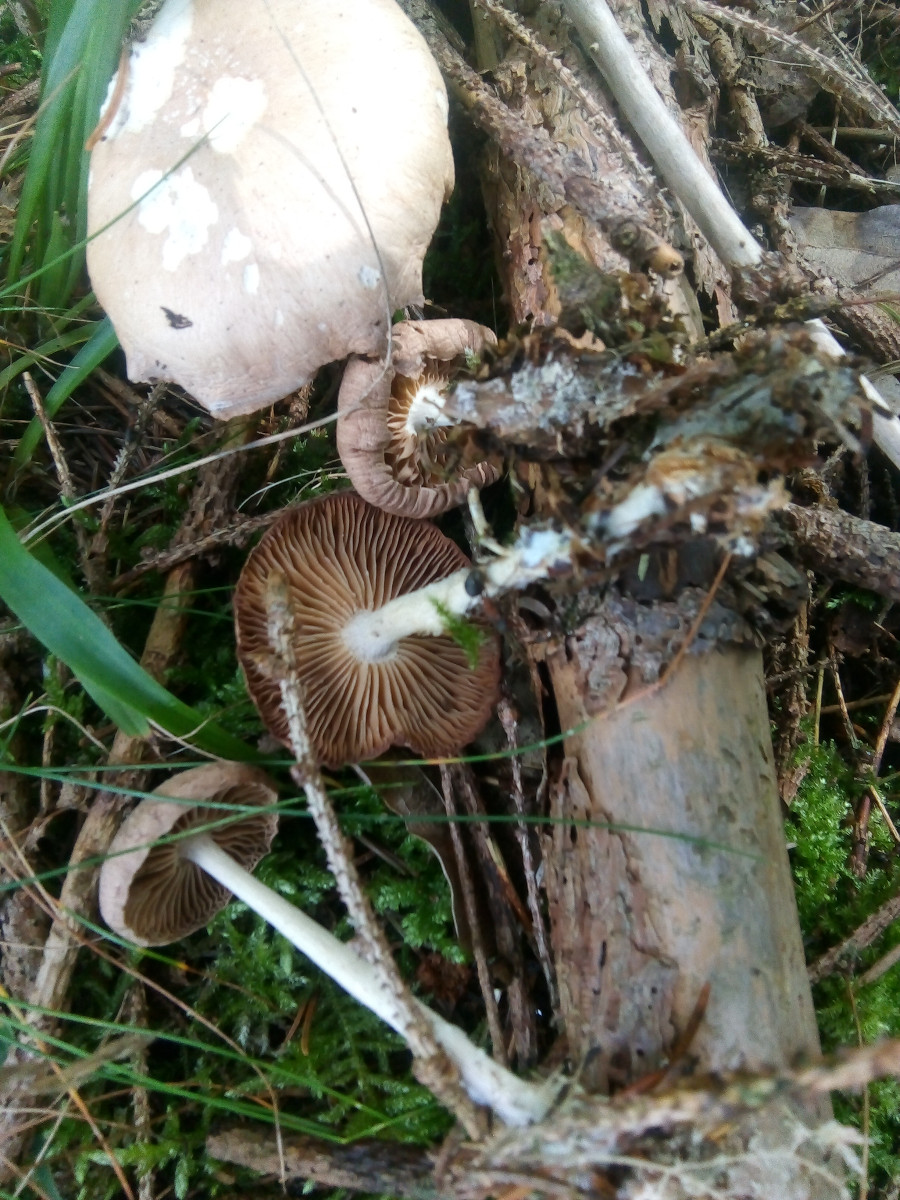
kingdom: Fungi
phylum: Basidiomycota
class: Agaricomycetes
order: Agaricales
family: Omphalotaceae
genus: Collybiopsis
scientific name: Collybiopsis peronata
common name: bestøvlet fladhat
